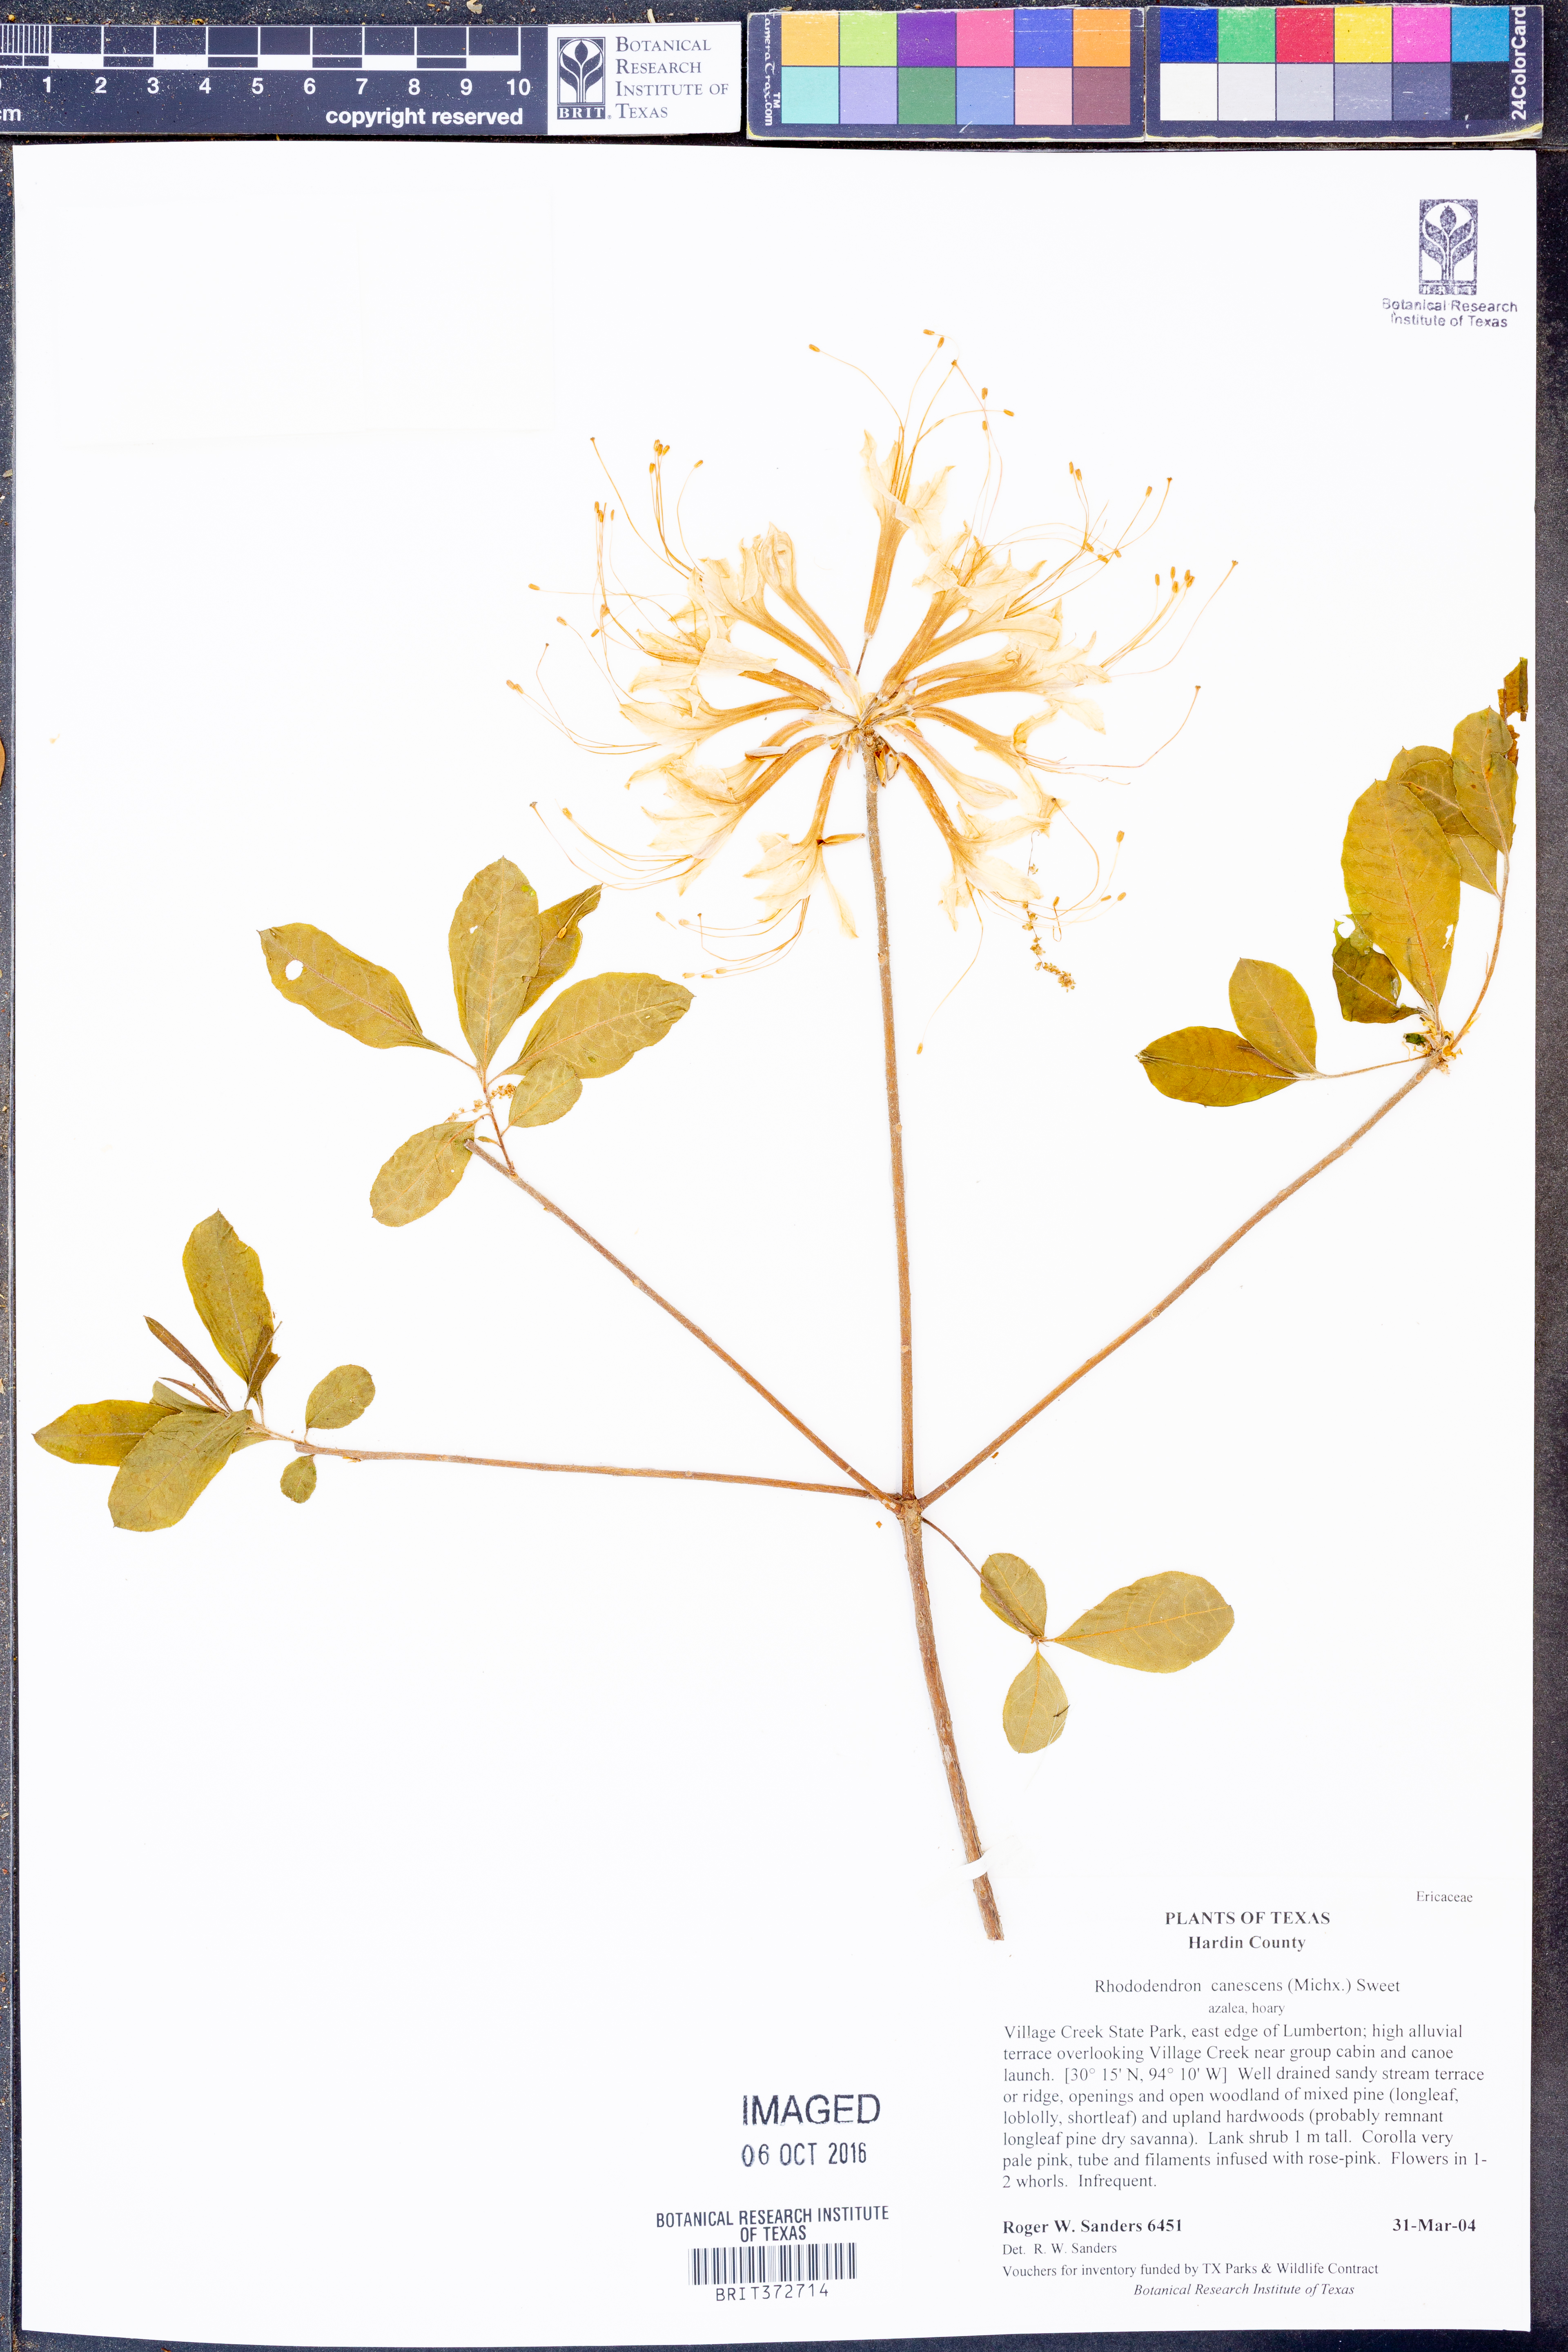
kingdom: Plantae
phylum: Tracheophyta
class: Magnoliopsida
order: Ericales
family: Ericaceae
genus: Rhododendron
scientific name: Rhododendron canescens
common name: Mountain azalea
